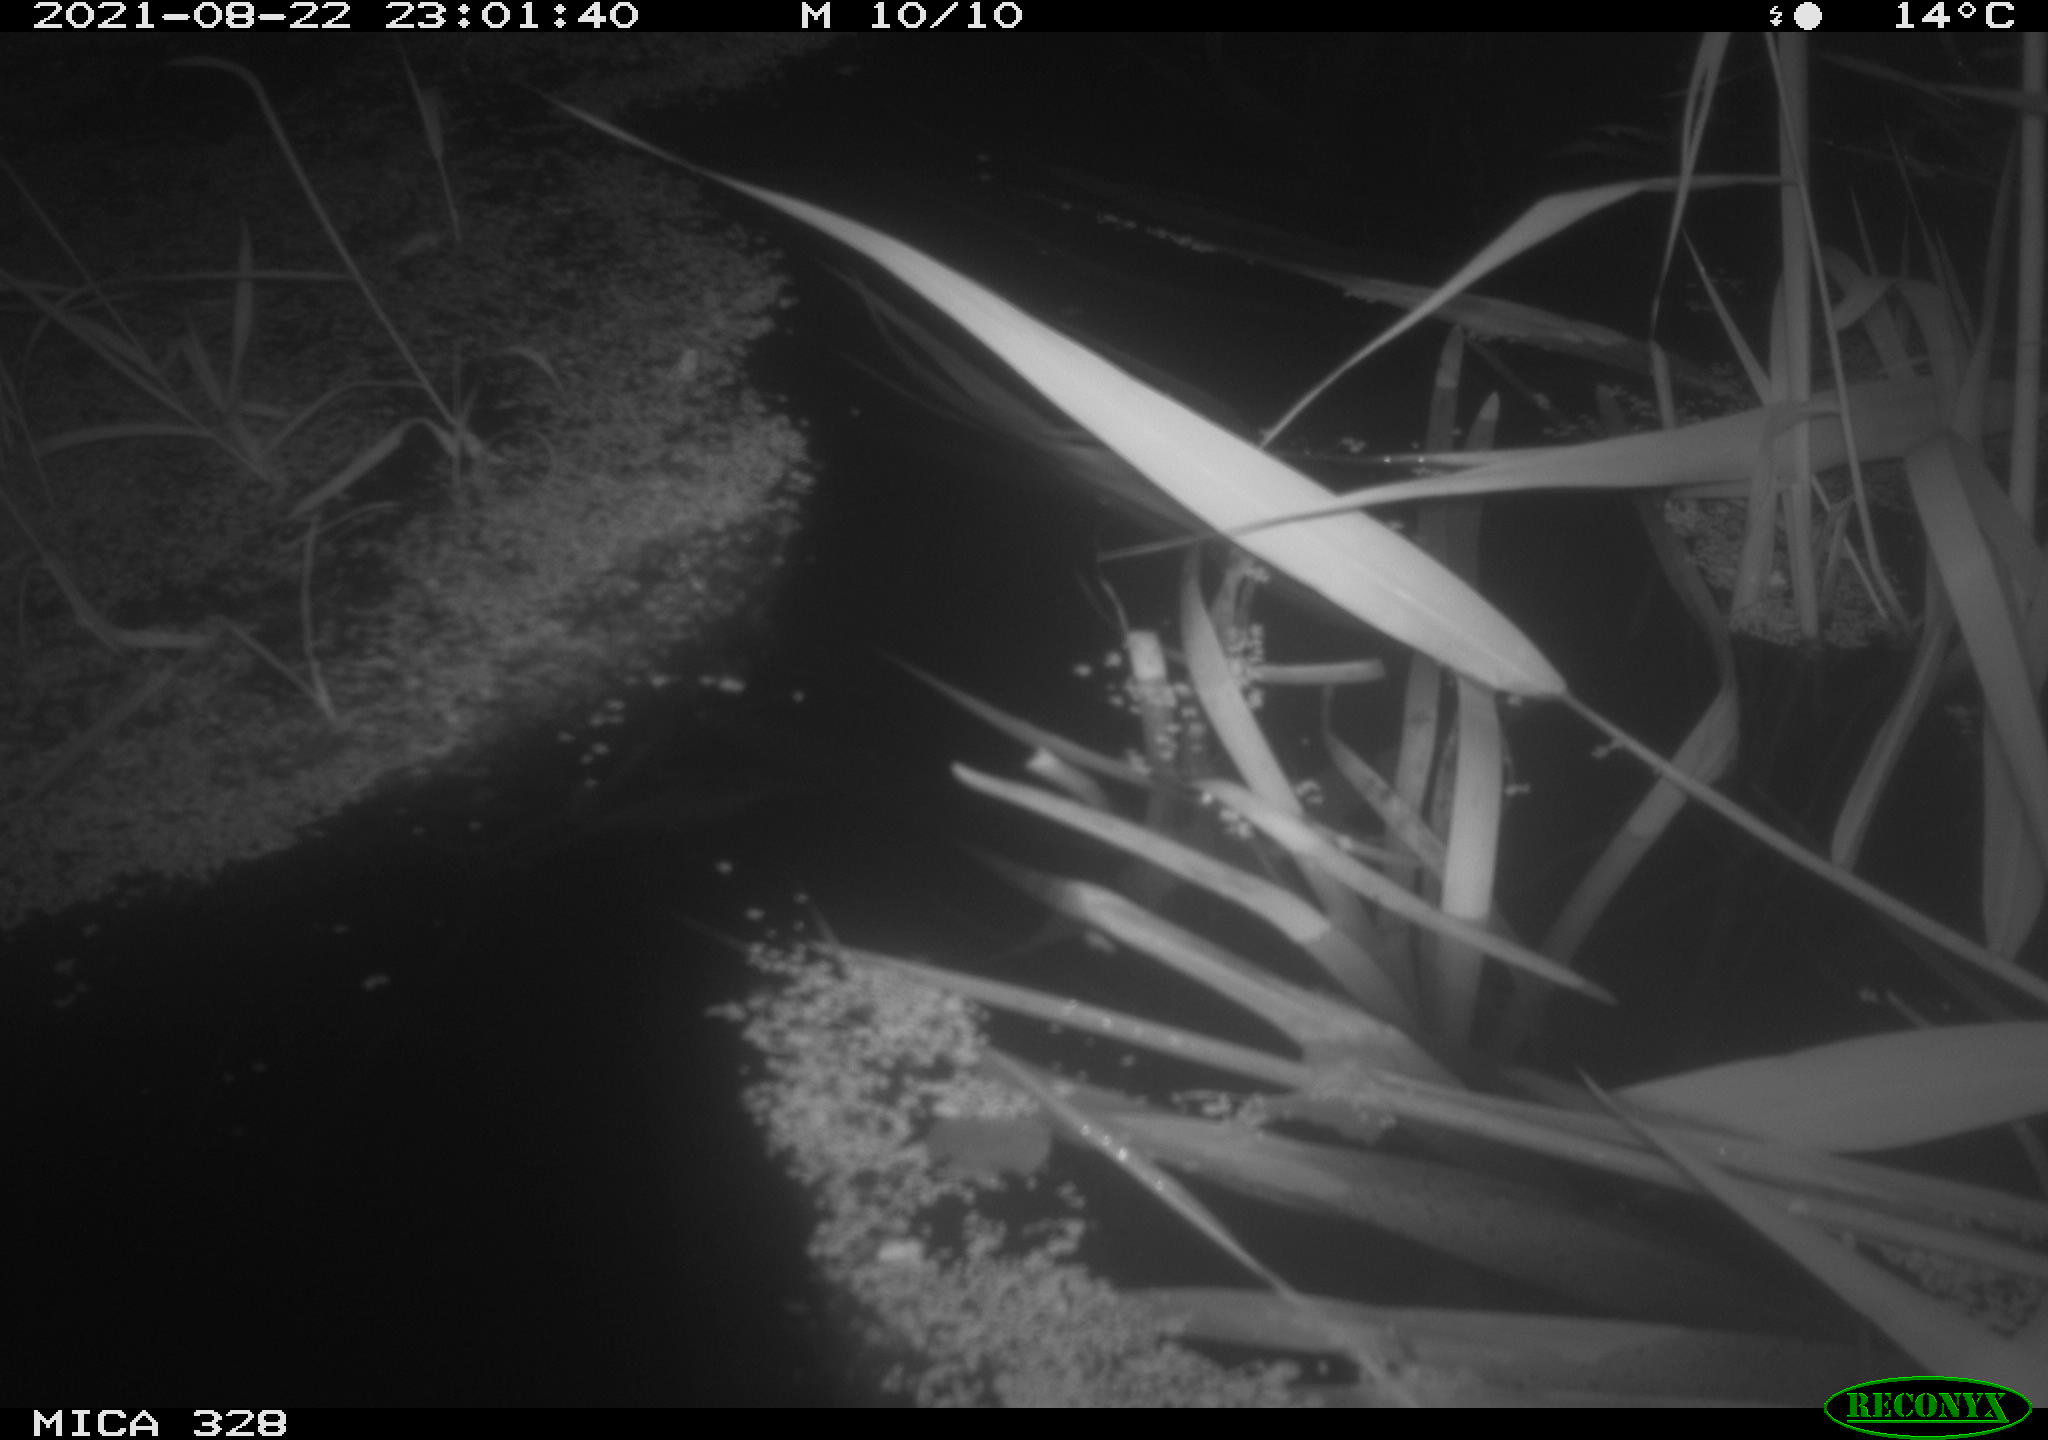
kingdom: Animalia
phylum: Chordata
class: Mammalia
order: Rodentia
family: Cricetidae
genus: Ondatra
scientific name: Ondatra zibethicus
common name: Muskrat
